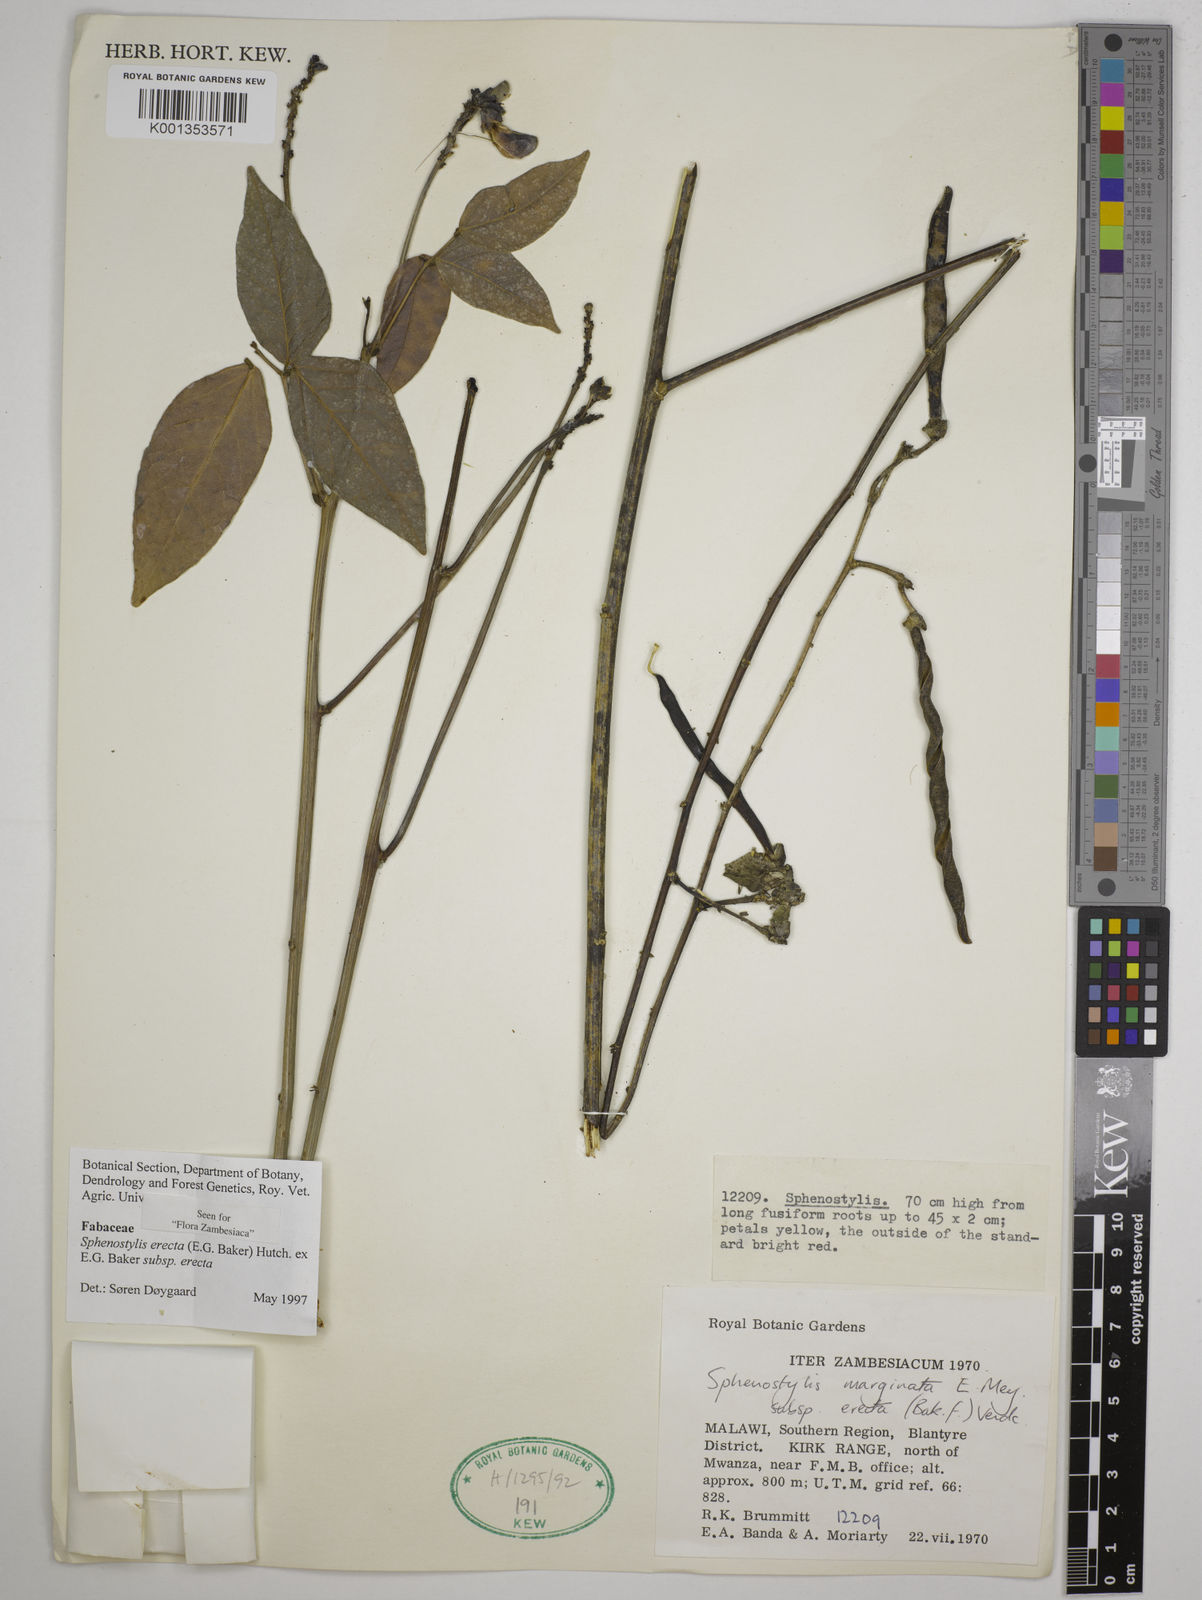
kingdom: Plantae
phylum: Tracheophyta
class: Magnoliopsida
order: Fabales
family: Fabaceae
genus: Sphenostylis
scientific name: Sphenostylis erecta
